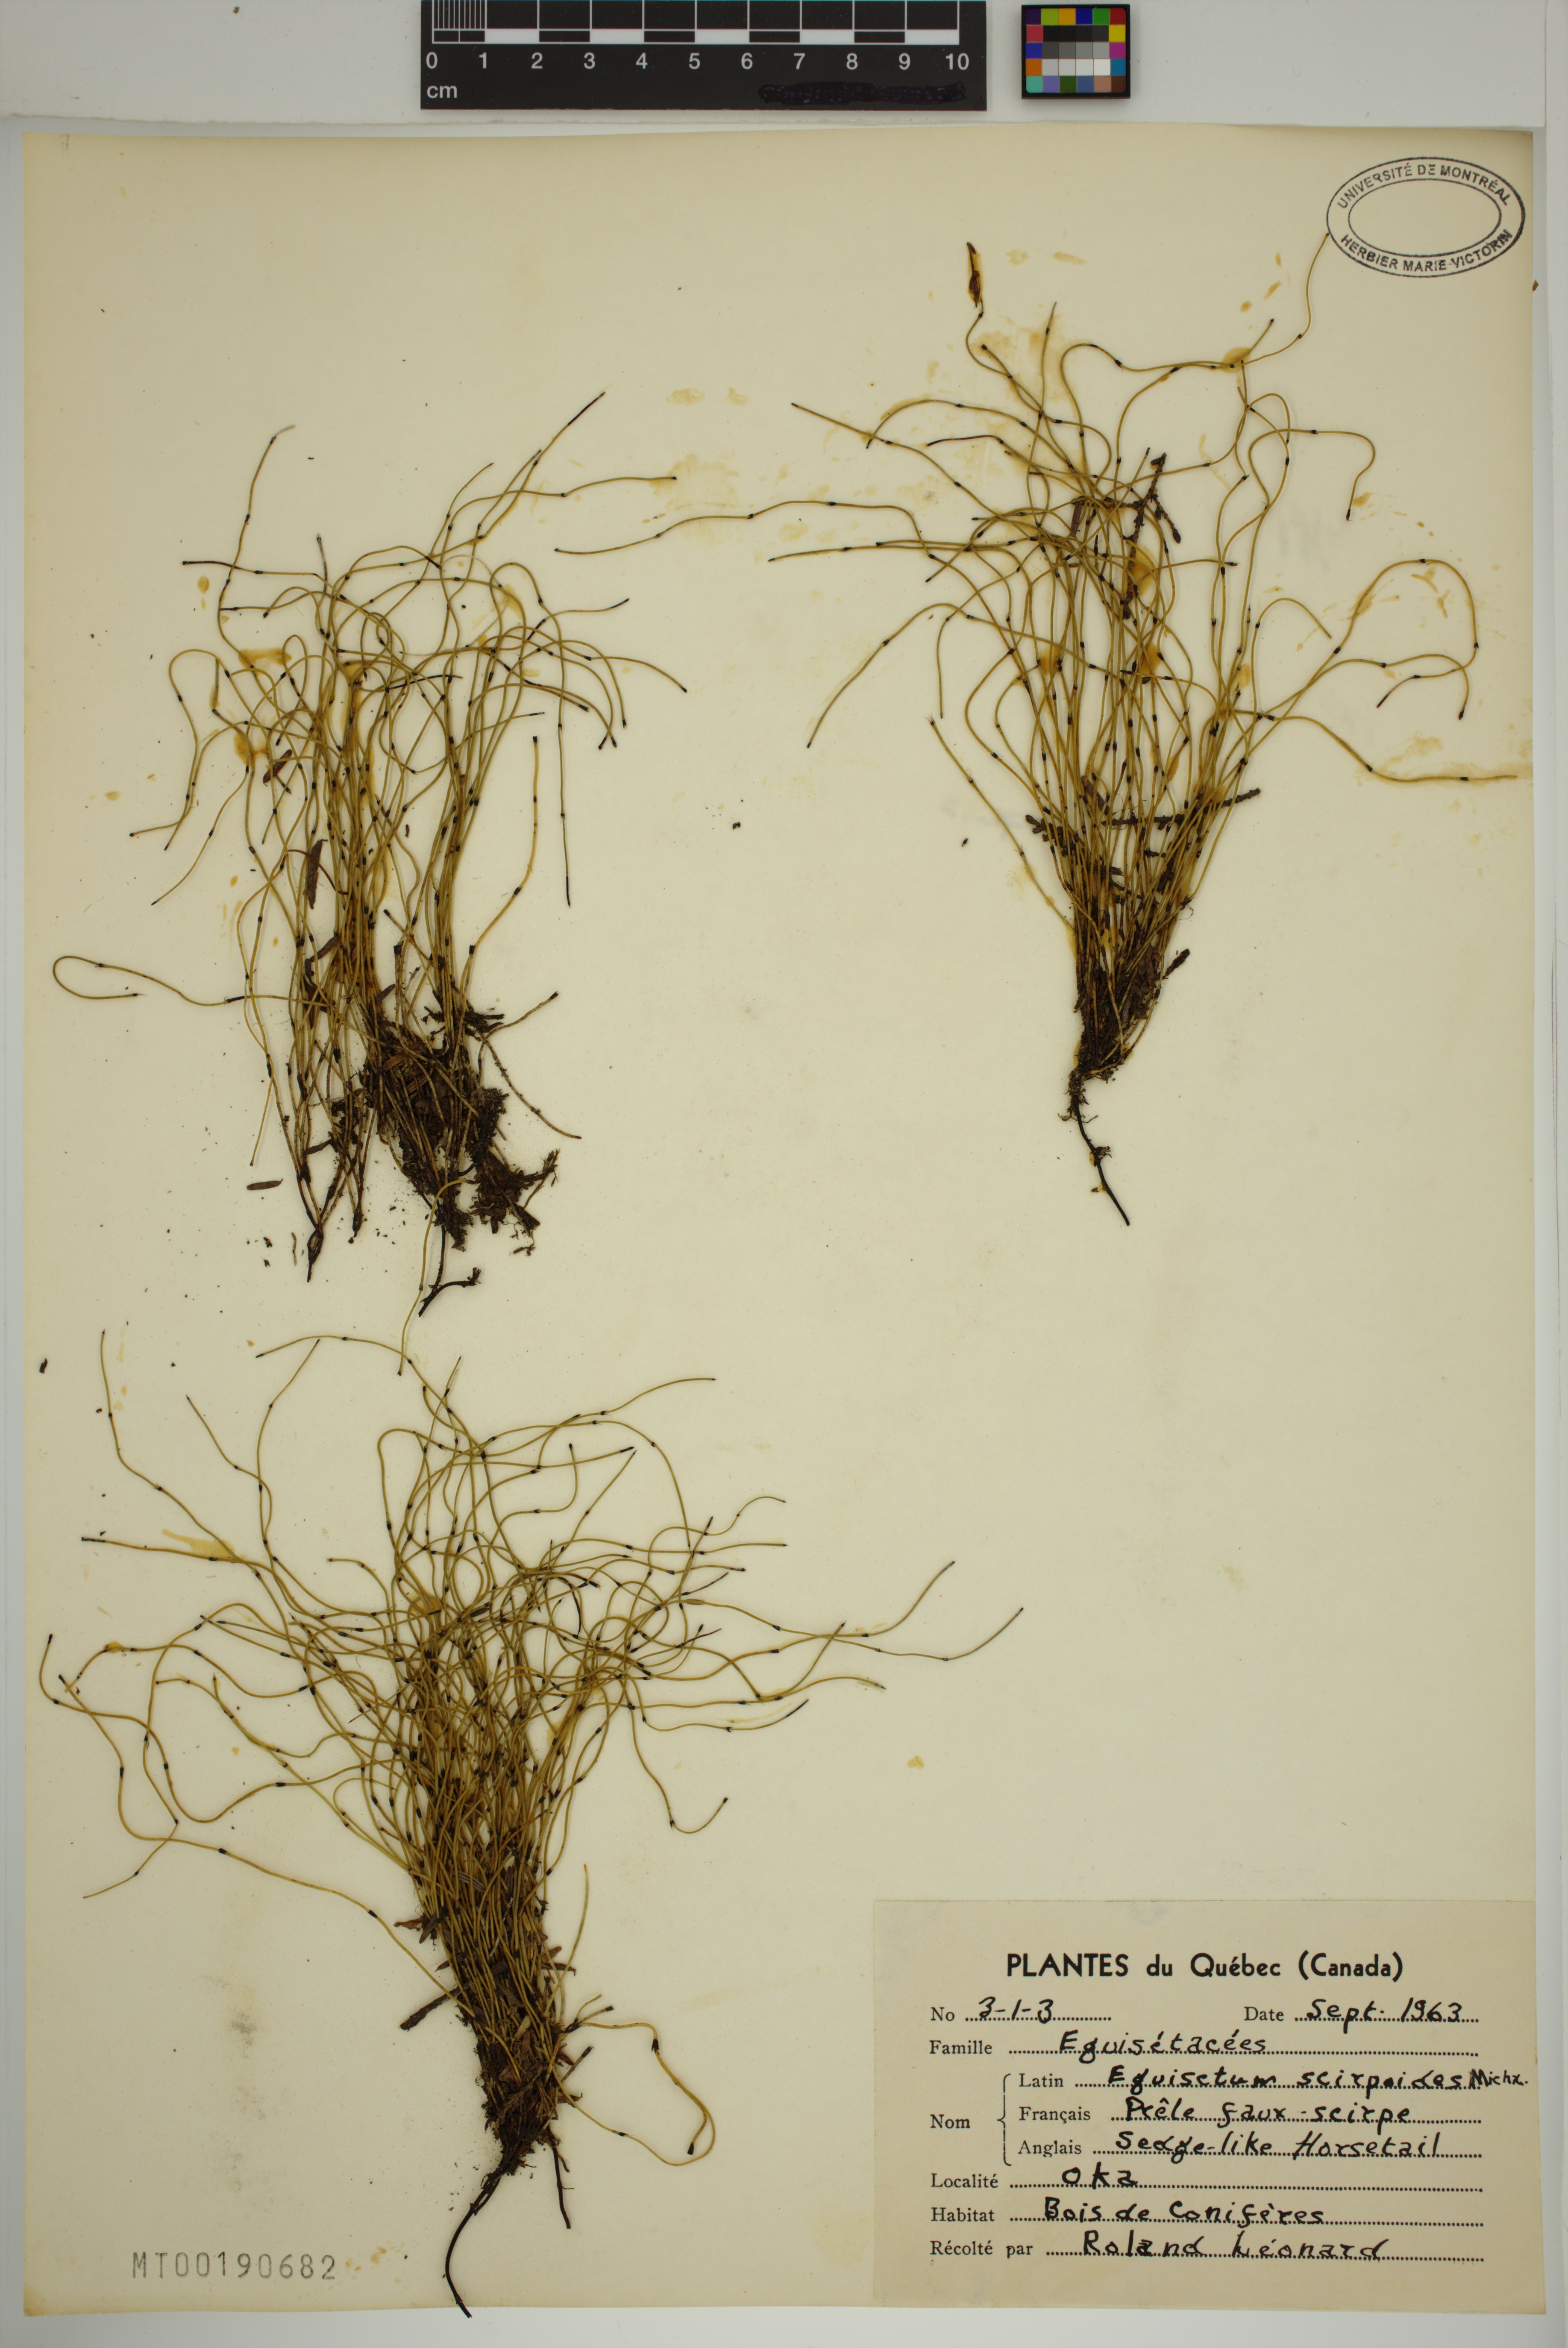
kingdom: Plantae
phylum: Tracheophyta
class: Polypodiopsida
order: Equisetales
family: Equisetaceae
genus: Equisetum
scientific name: Equisetum scirpoides
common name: Delicate horsetail
